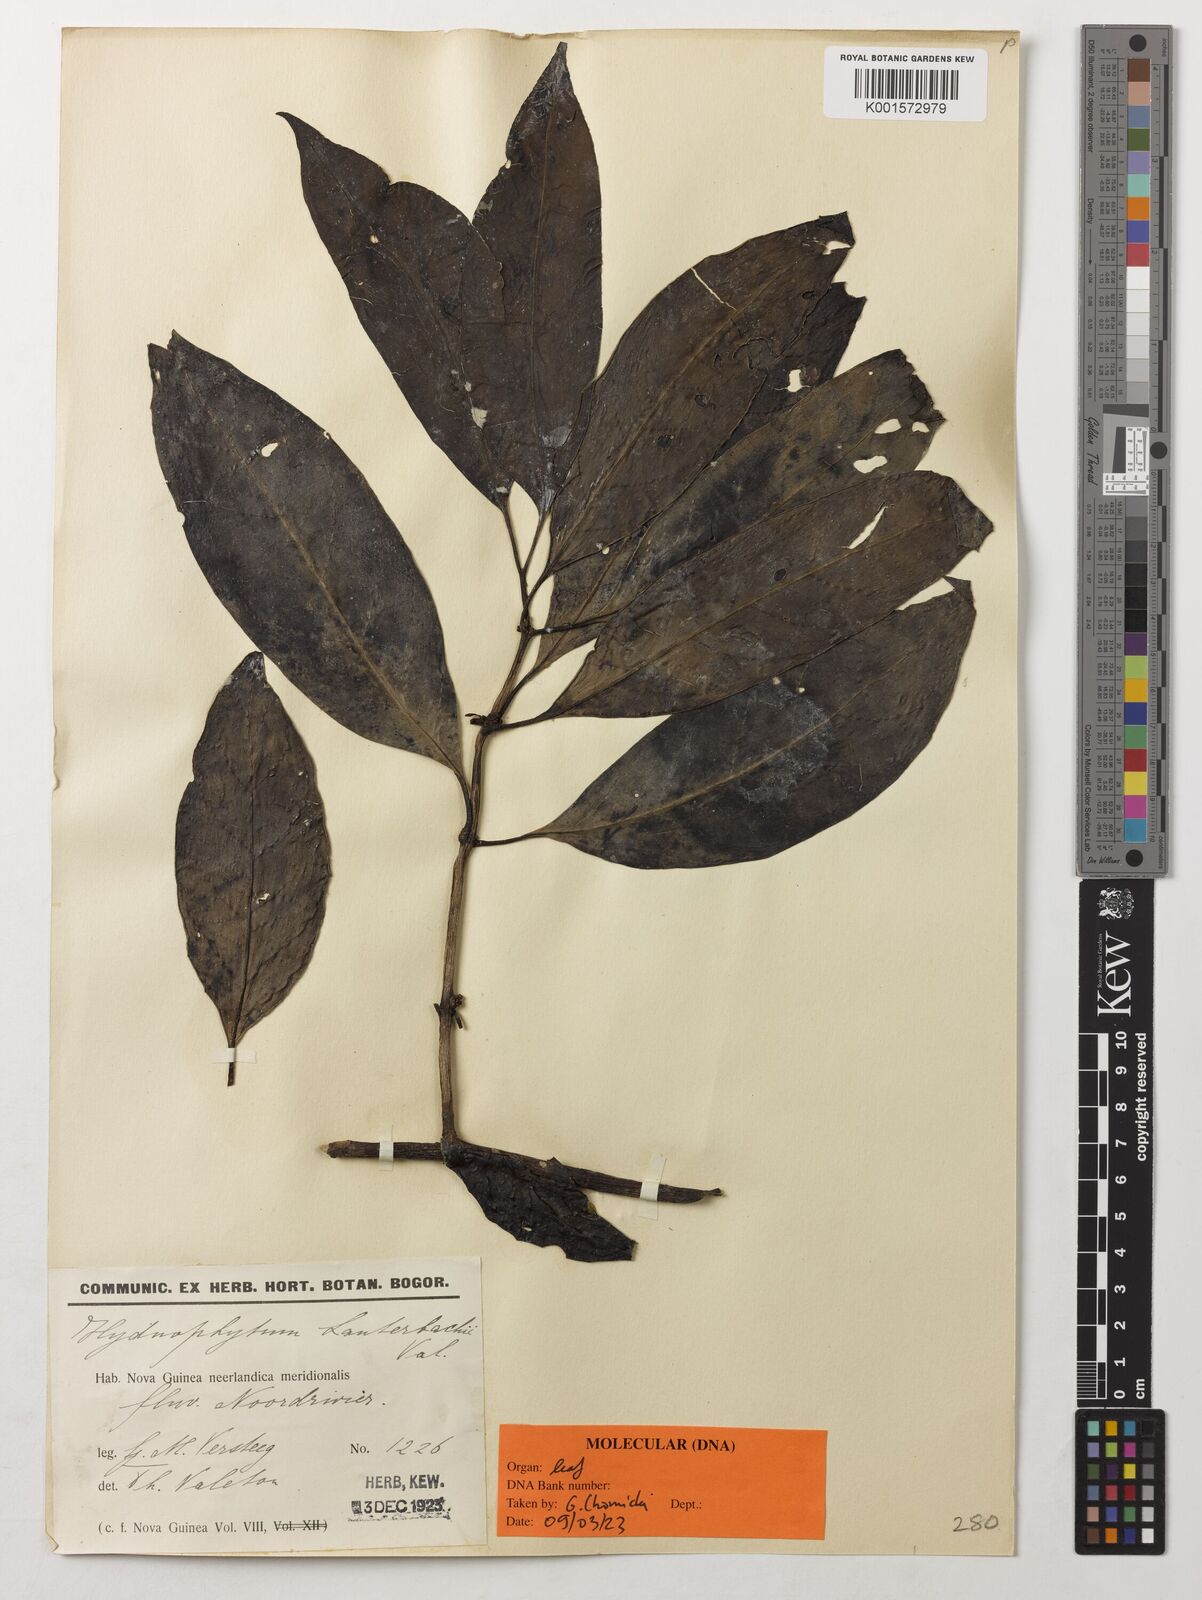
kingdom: Plantae
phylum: Tracheophyta
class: Magnoliopsida
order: Gentianales
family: Rubiaceae
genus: Hydnophytum
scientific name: Hydnophytum lauterbachii
